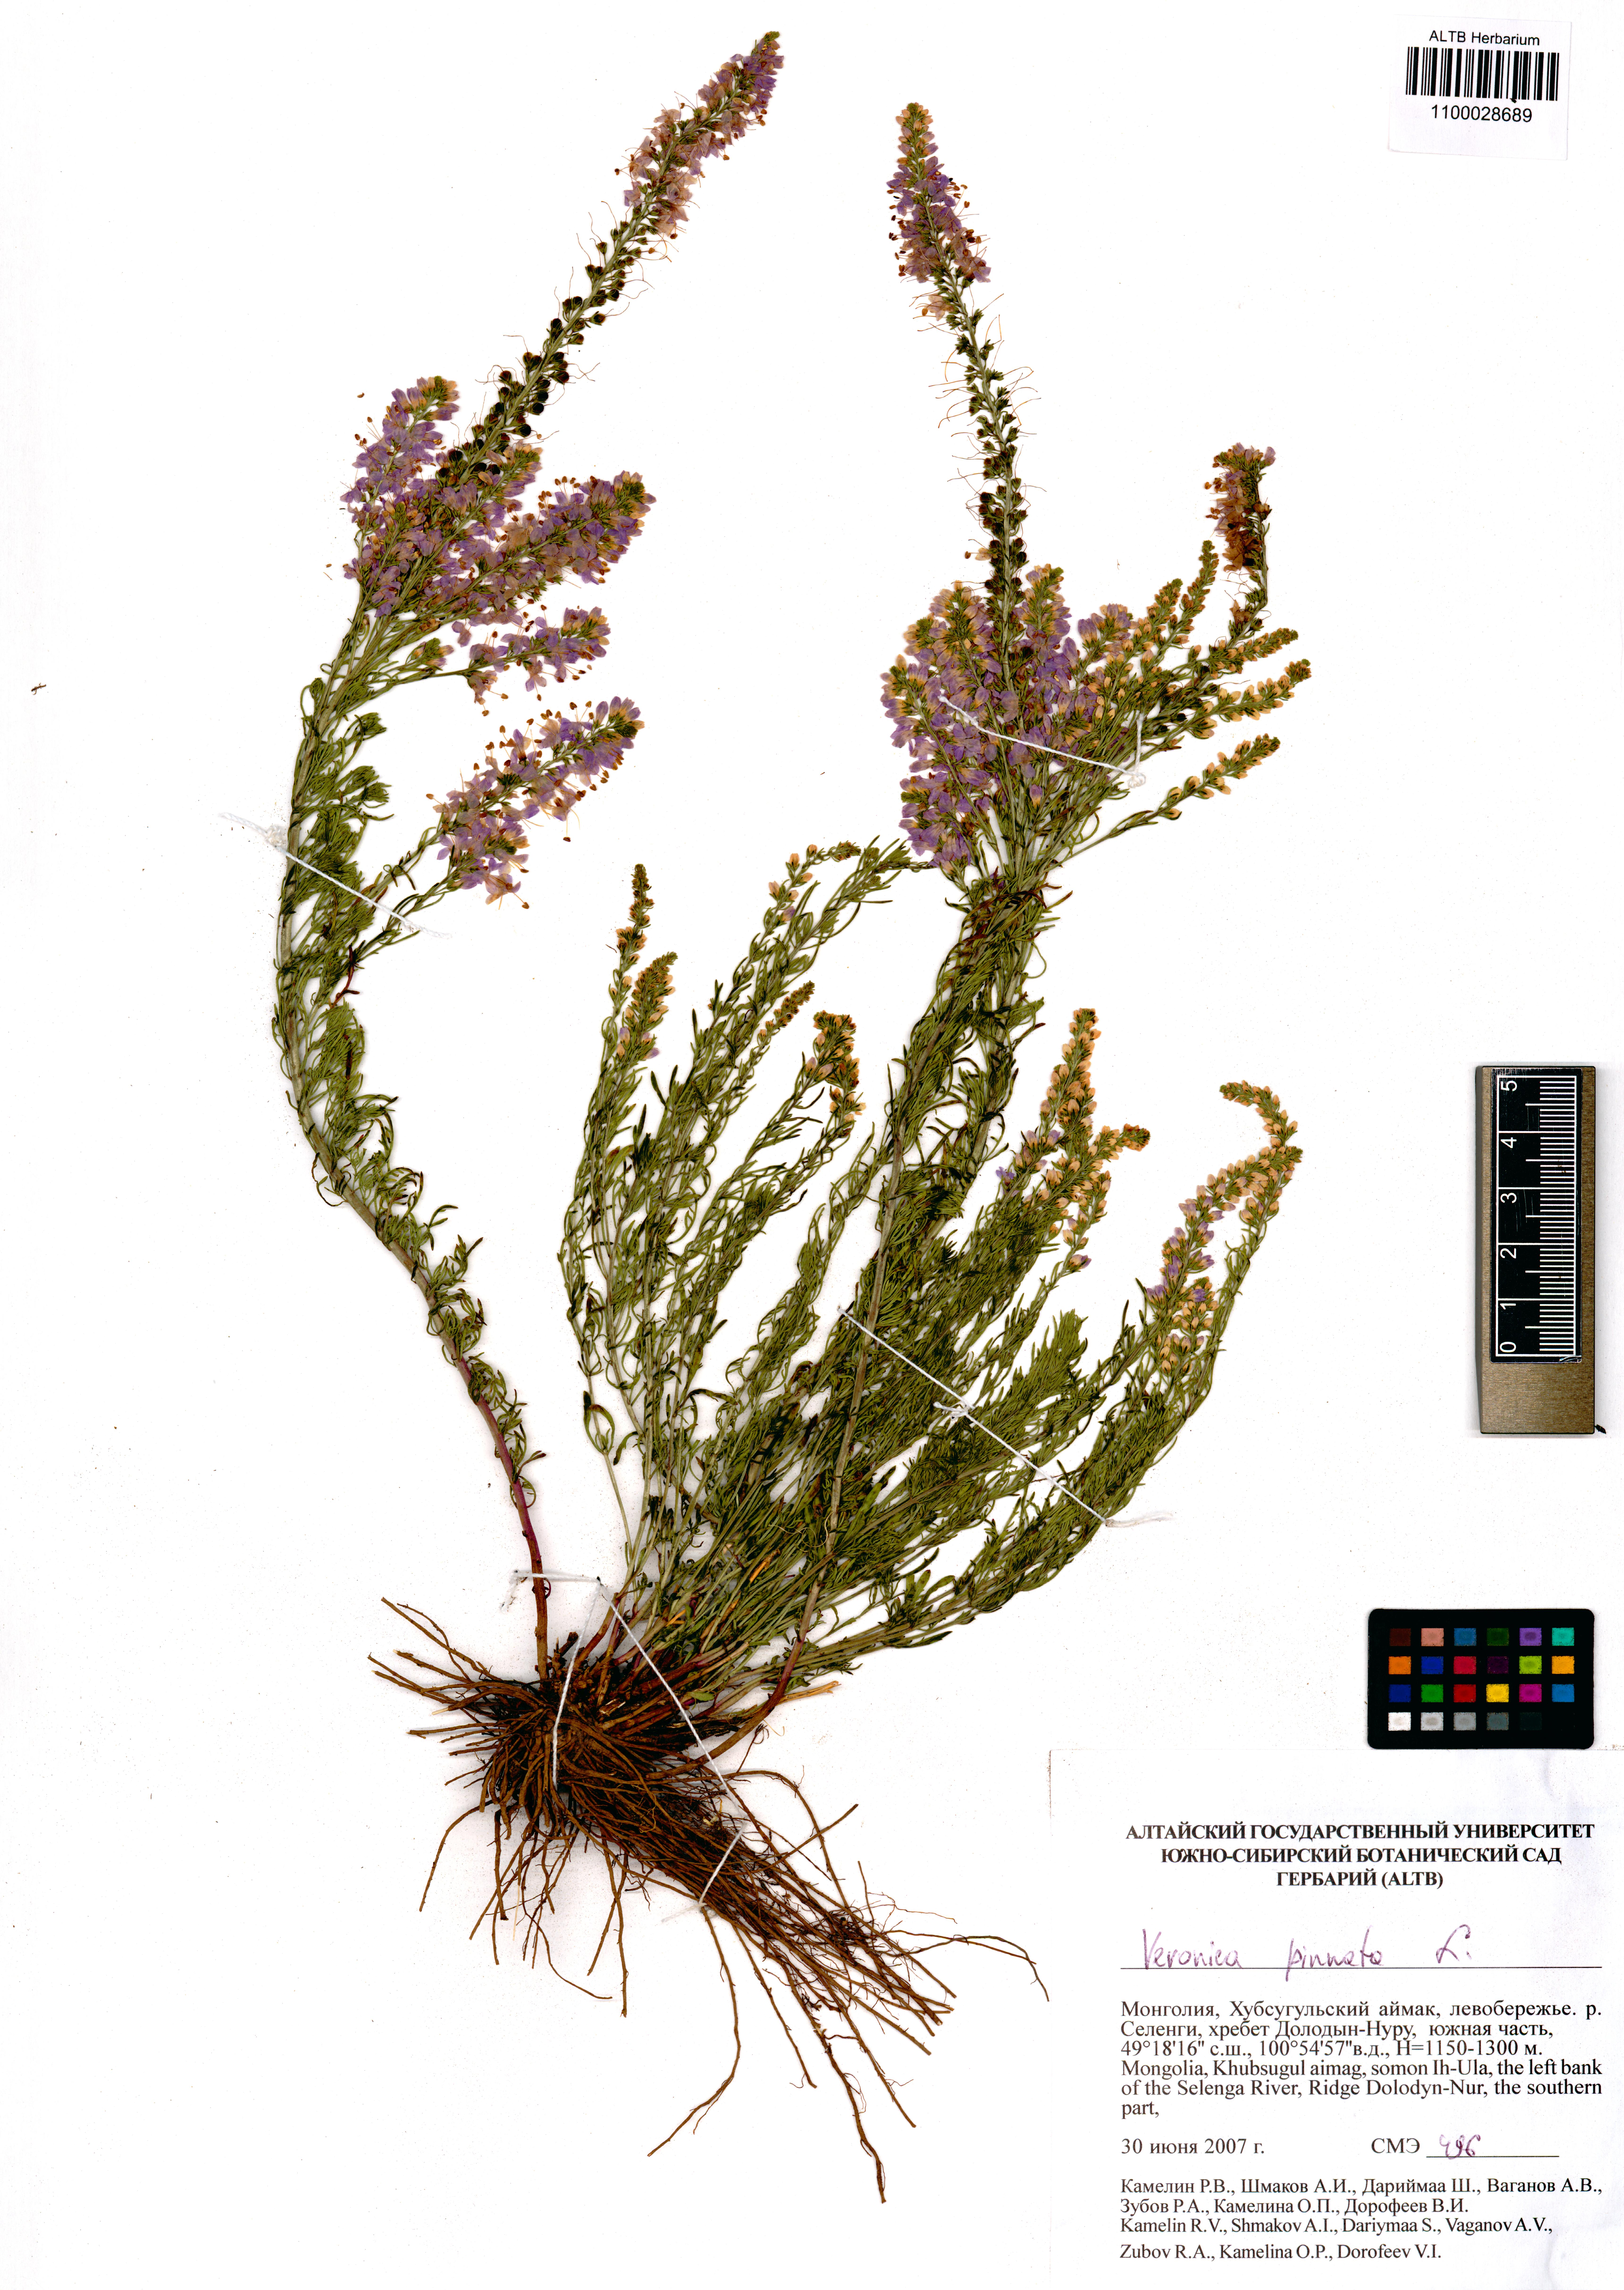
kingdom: Plantae
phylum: Tracheophyta
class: Magnoliopsida
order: Lamiales
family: Plantaginaceae
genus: Veronica
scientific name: Veronica pinnata
